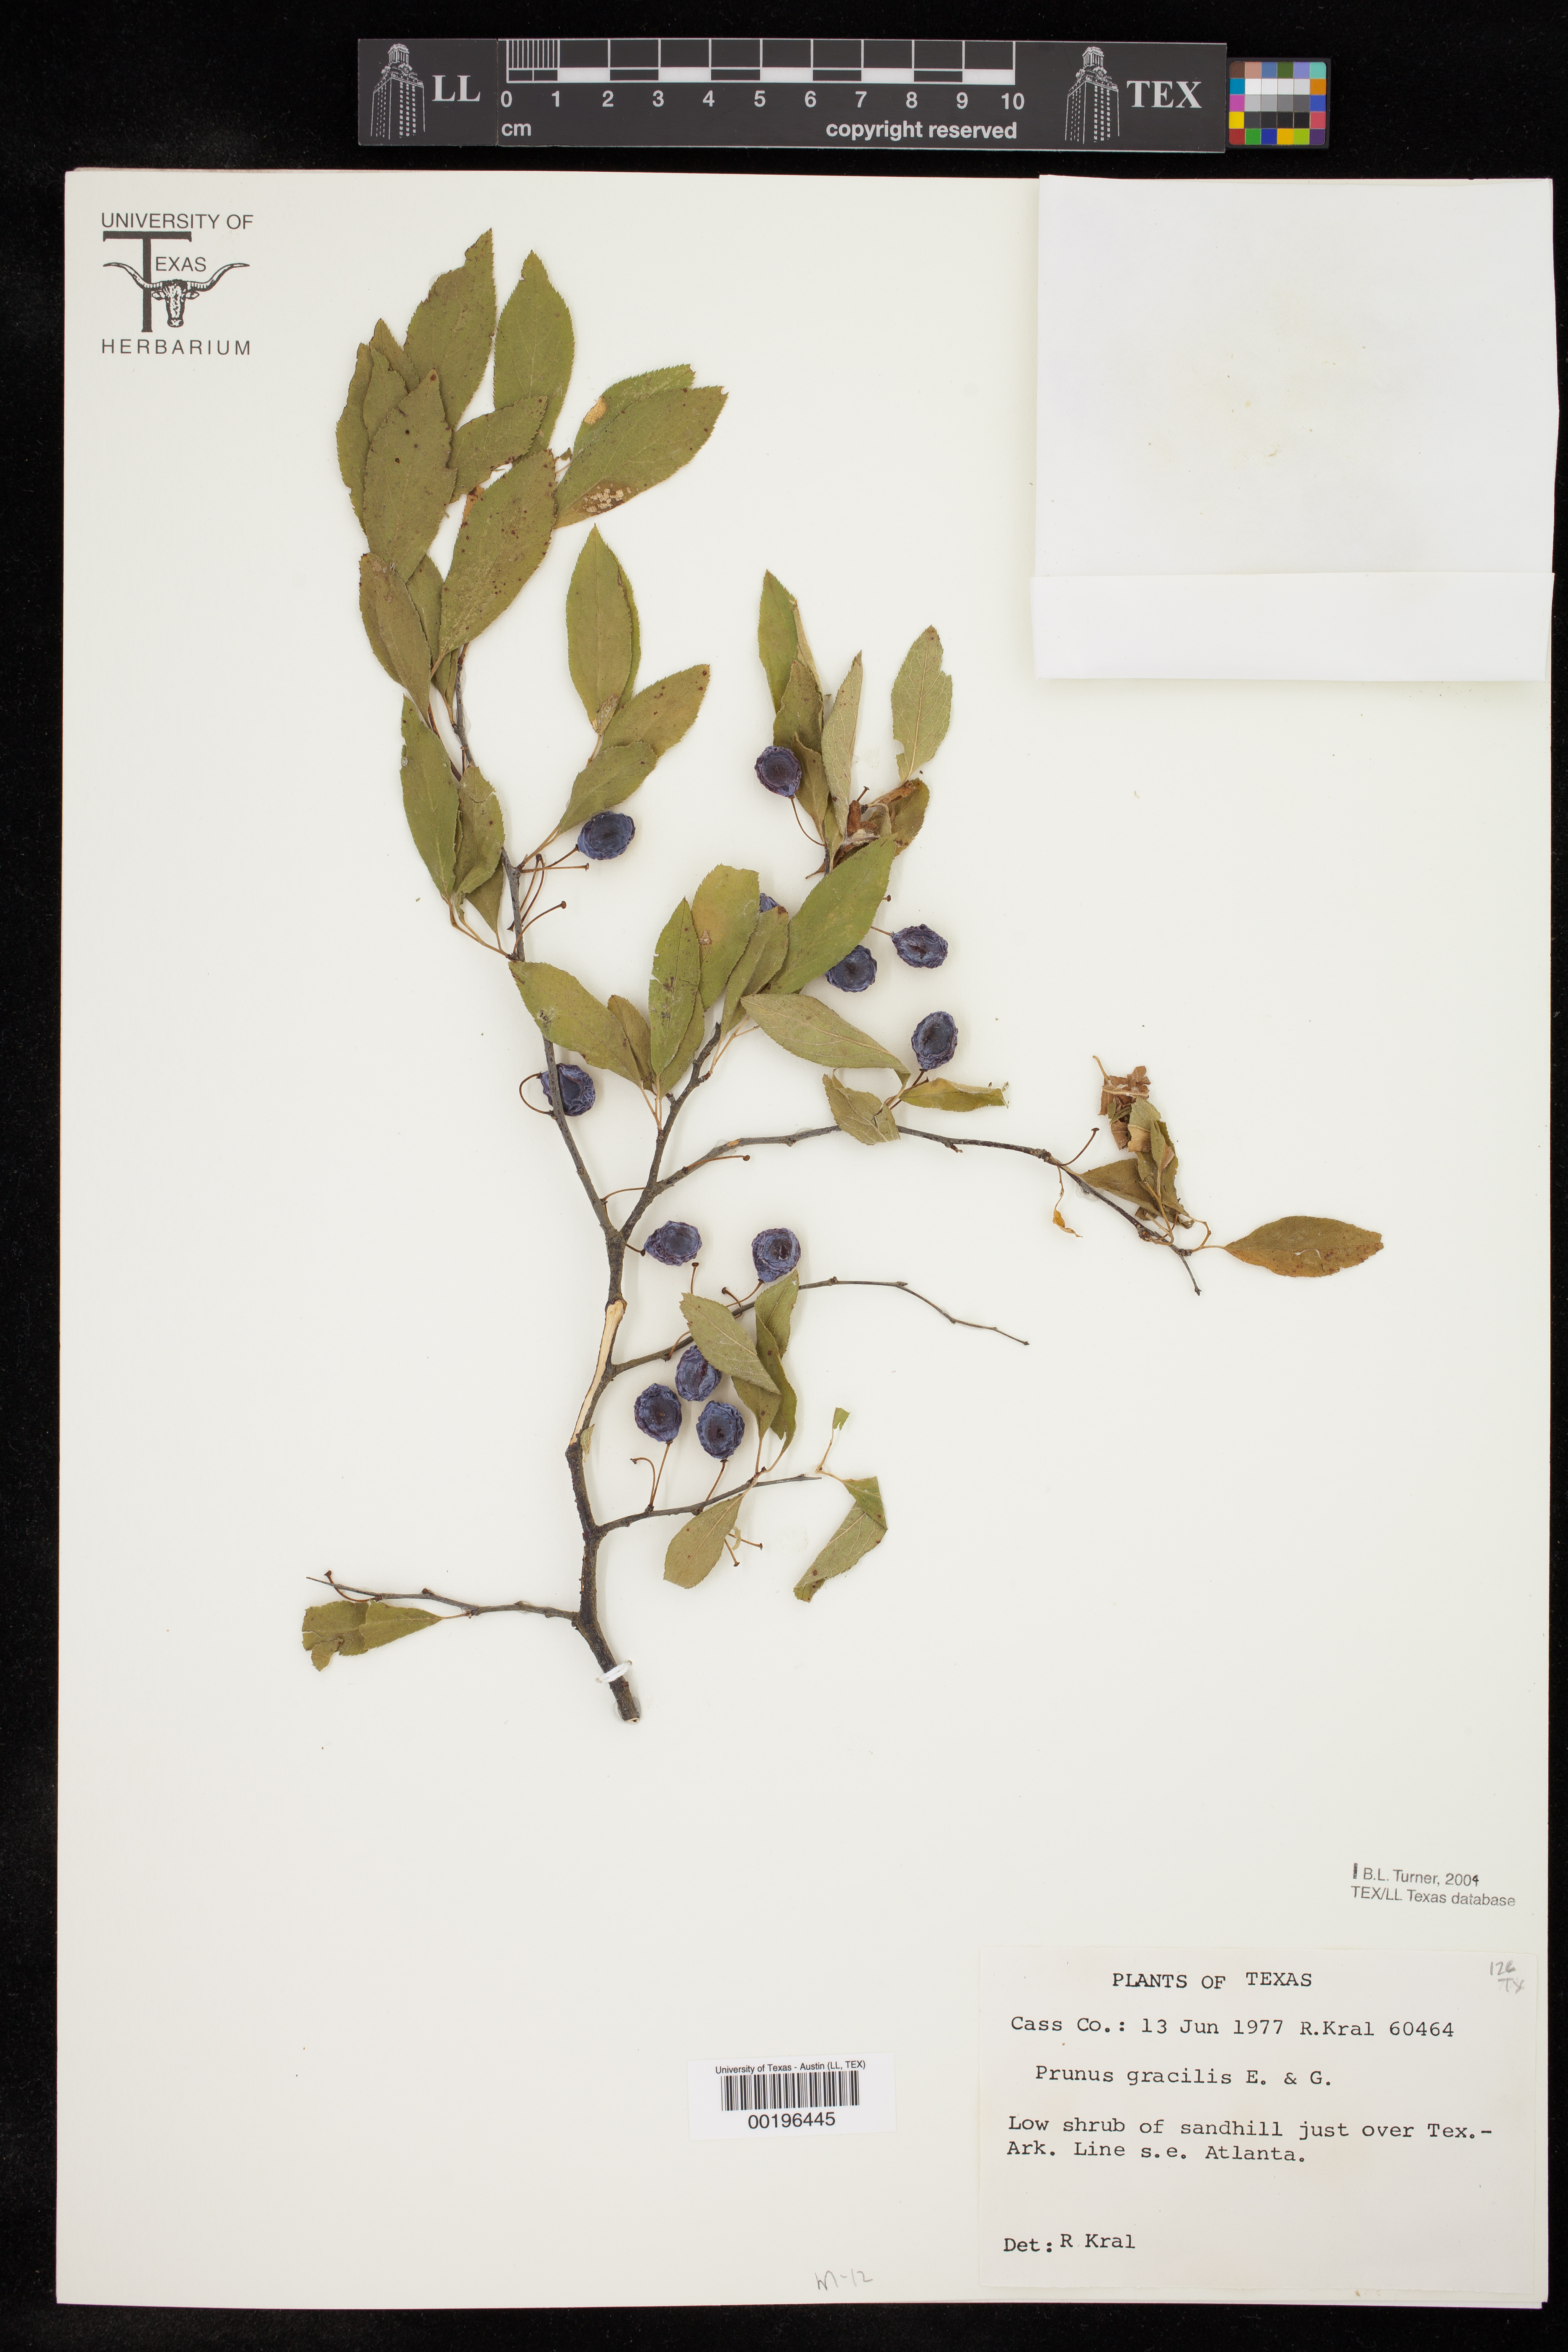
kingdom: Plantae
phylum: Tracheophyta
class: Magnoliopsida
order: Rosales
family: Rosaceae
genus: Prunus
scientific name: Prunus gracilis
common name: Oklahoma plum
